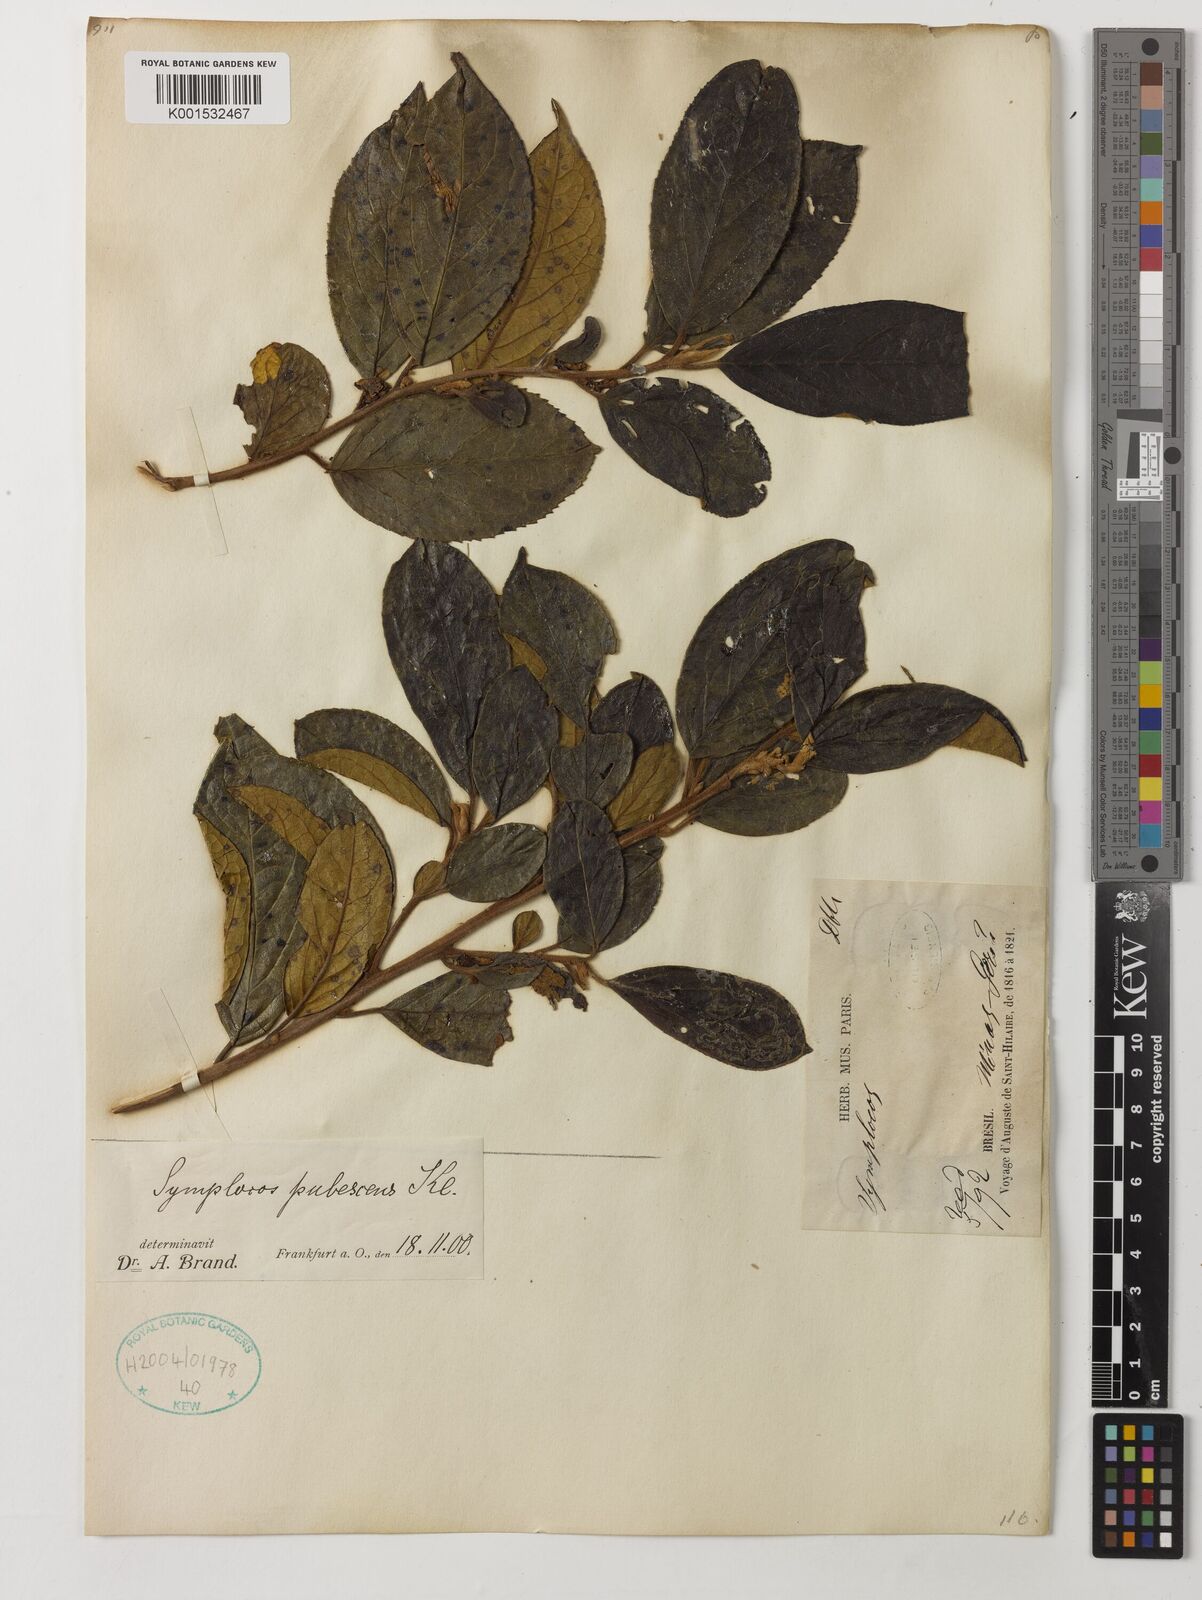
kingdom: Plantae
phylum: Tracheophyta
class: Magnoliopsida
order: Ericales
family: Symplocaceae
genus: Symplocos
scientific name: Symplocos pubescens
